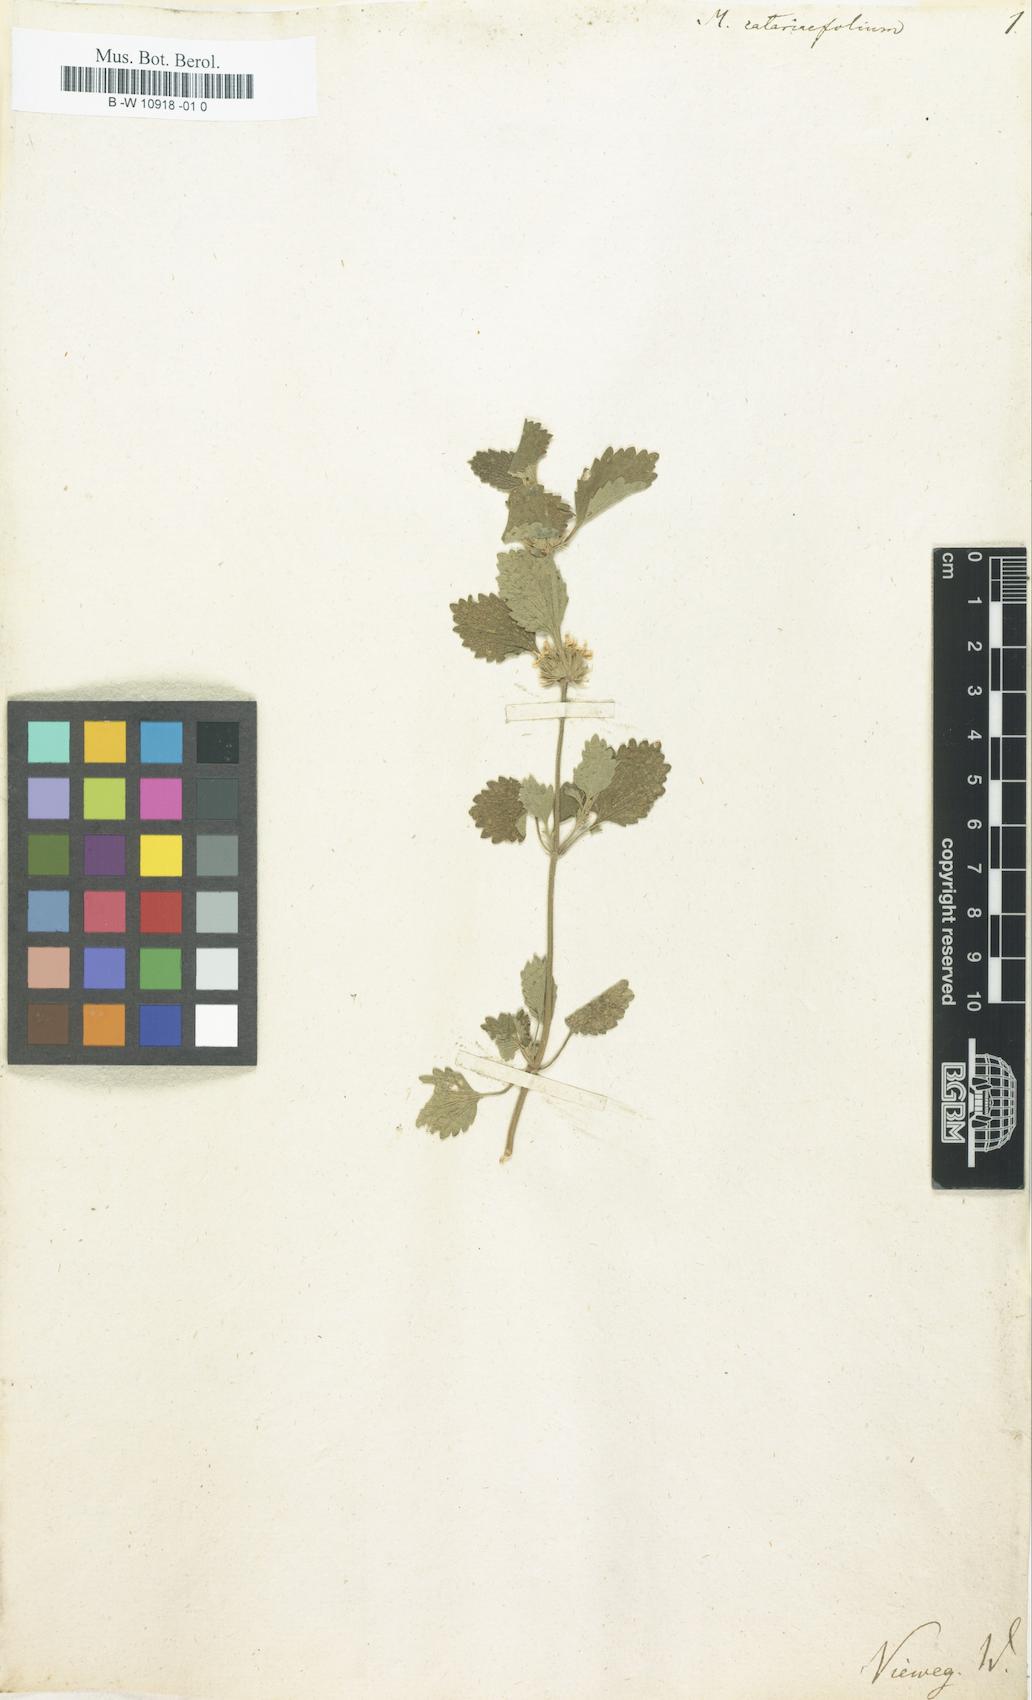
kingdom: Plantae
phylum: Tracheophyta
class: Magnoliopsida
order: Lamiales
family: Lamiaceae
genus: Marrubium
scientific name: Marrubium catariifolium
